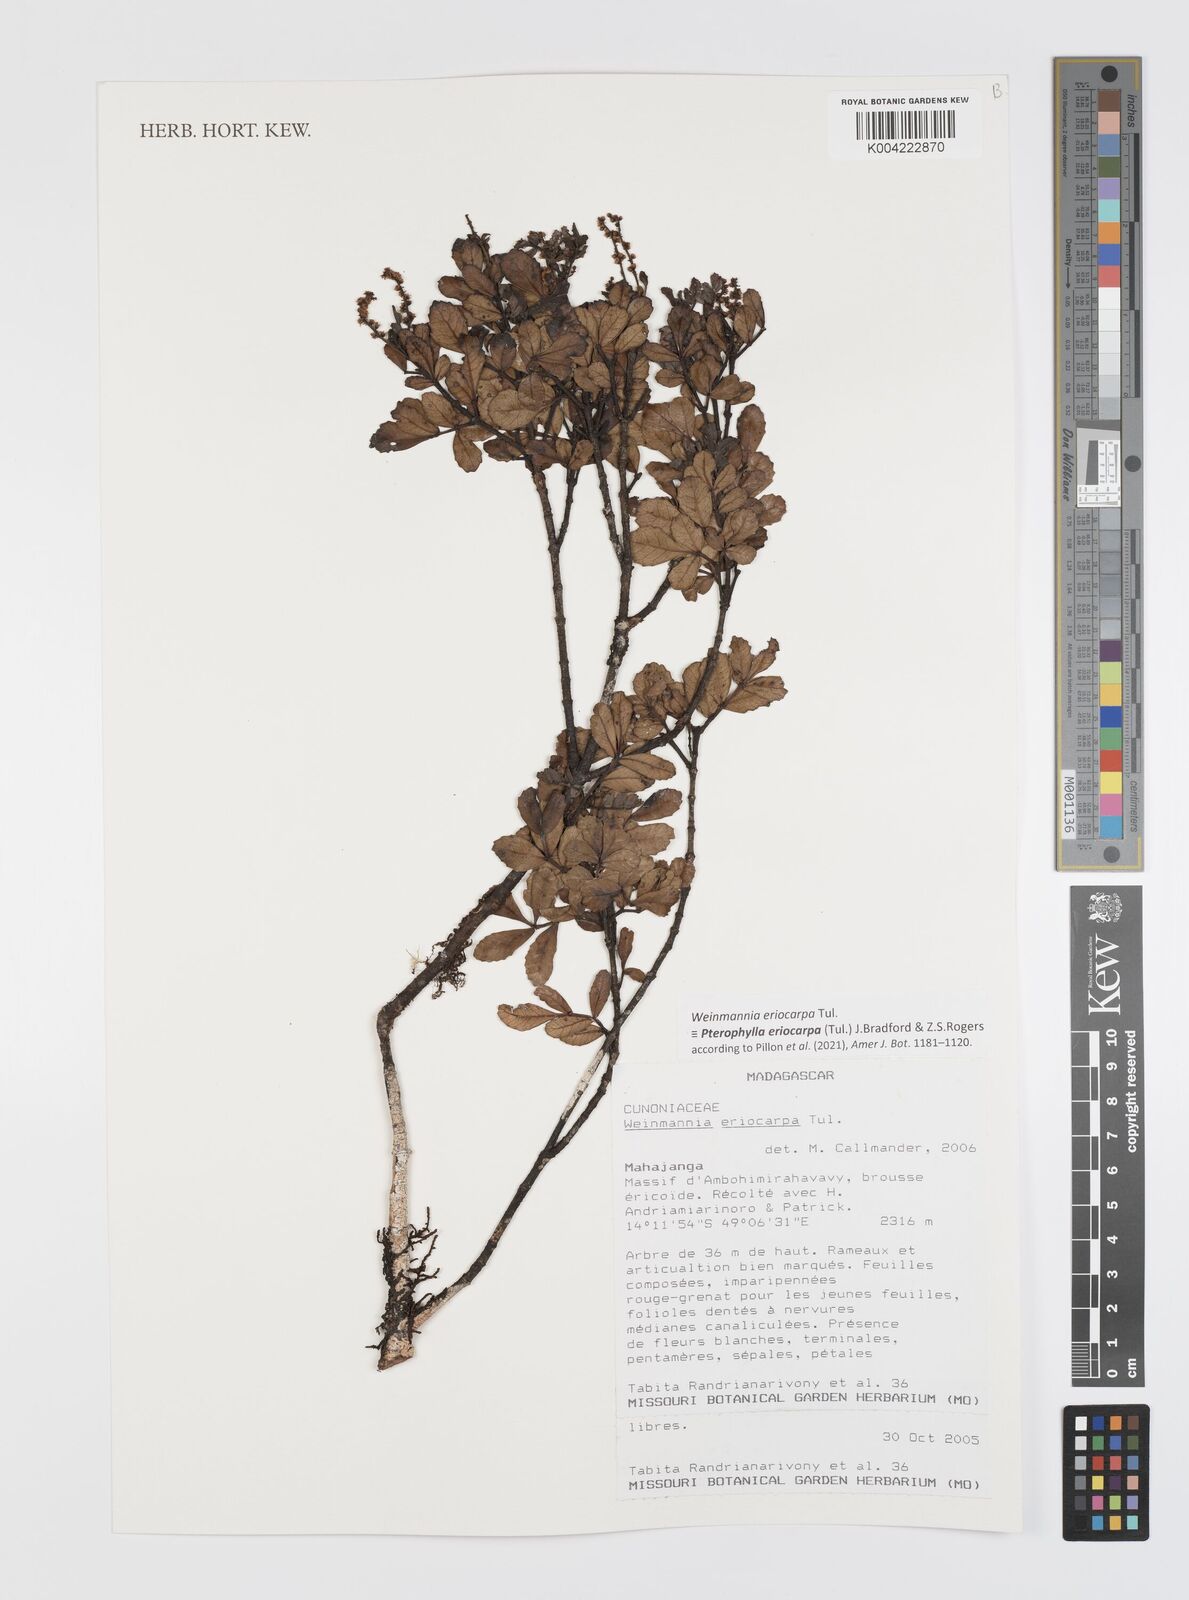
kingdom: Plantae
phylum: Tracheophyta
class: Magnoliopsida
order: Oxalidales
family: Cunoniaceae
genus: Pterophylla
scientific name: Pterophylla eriocarpa
